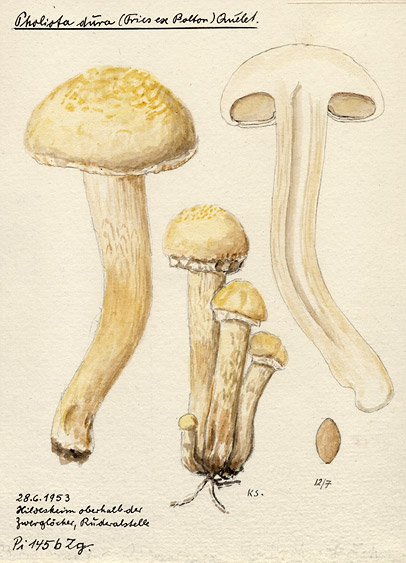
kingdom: Fungi
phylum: Basidiomycota
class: Agaricomycetes
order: Agaricales
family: Strophariaceae
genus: Agrocybe
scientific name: Agrocybe dura
